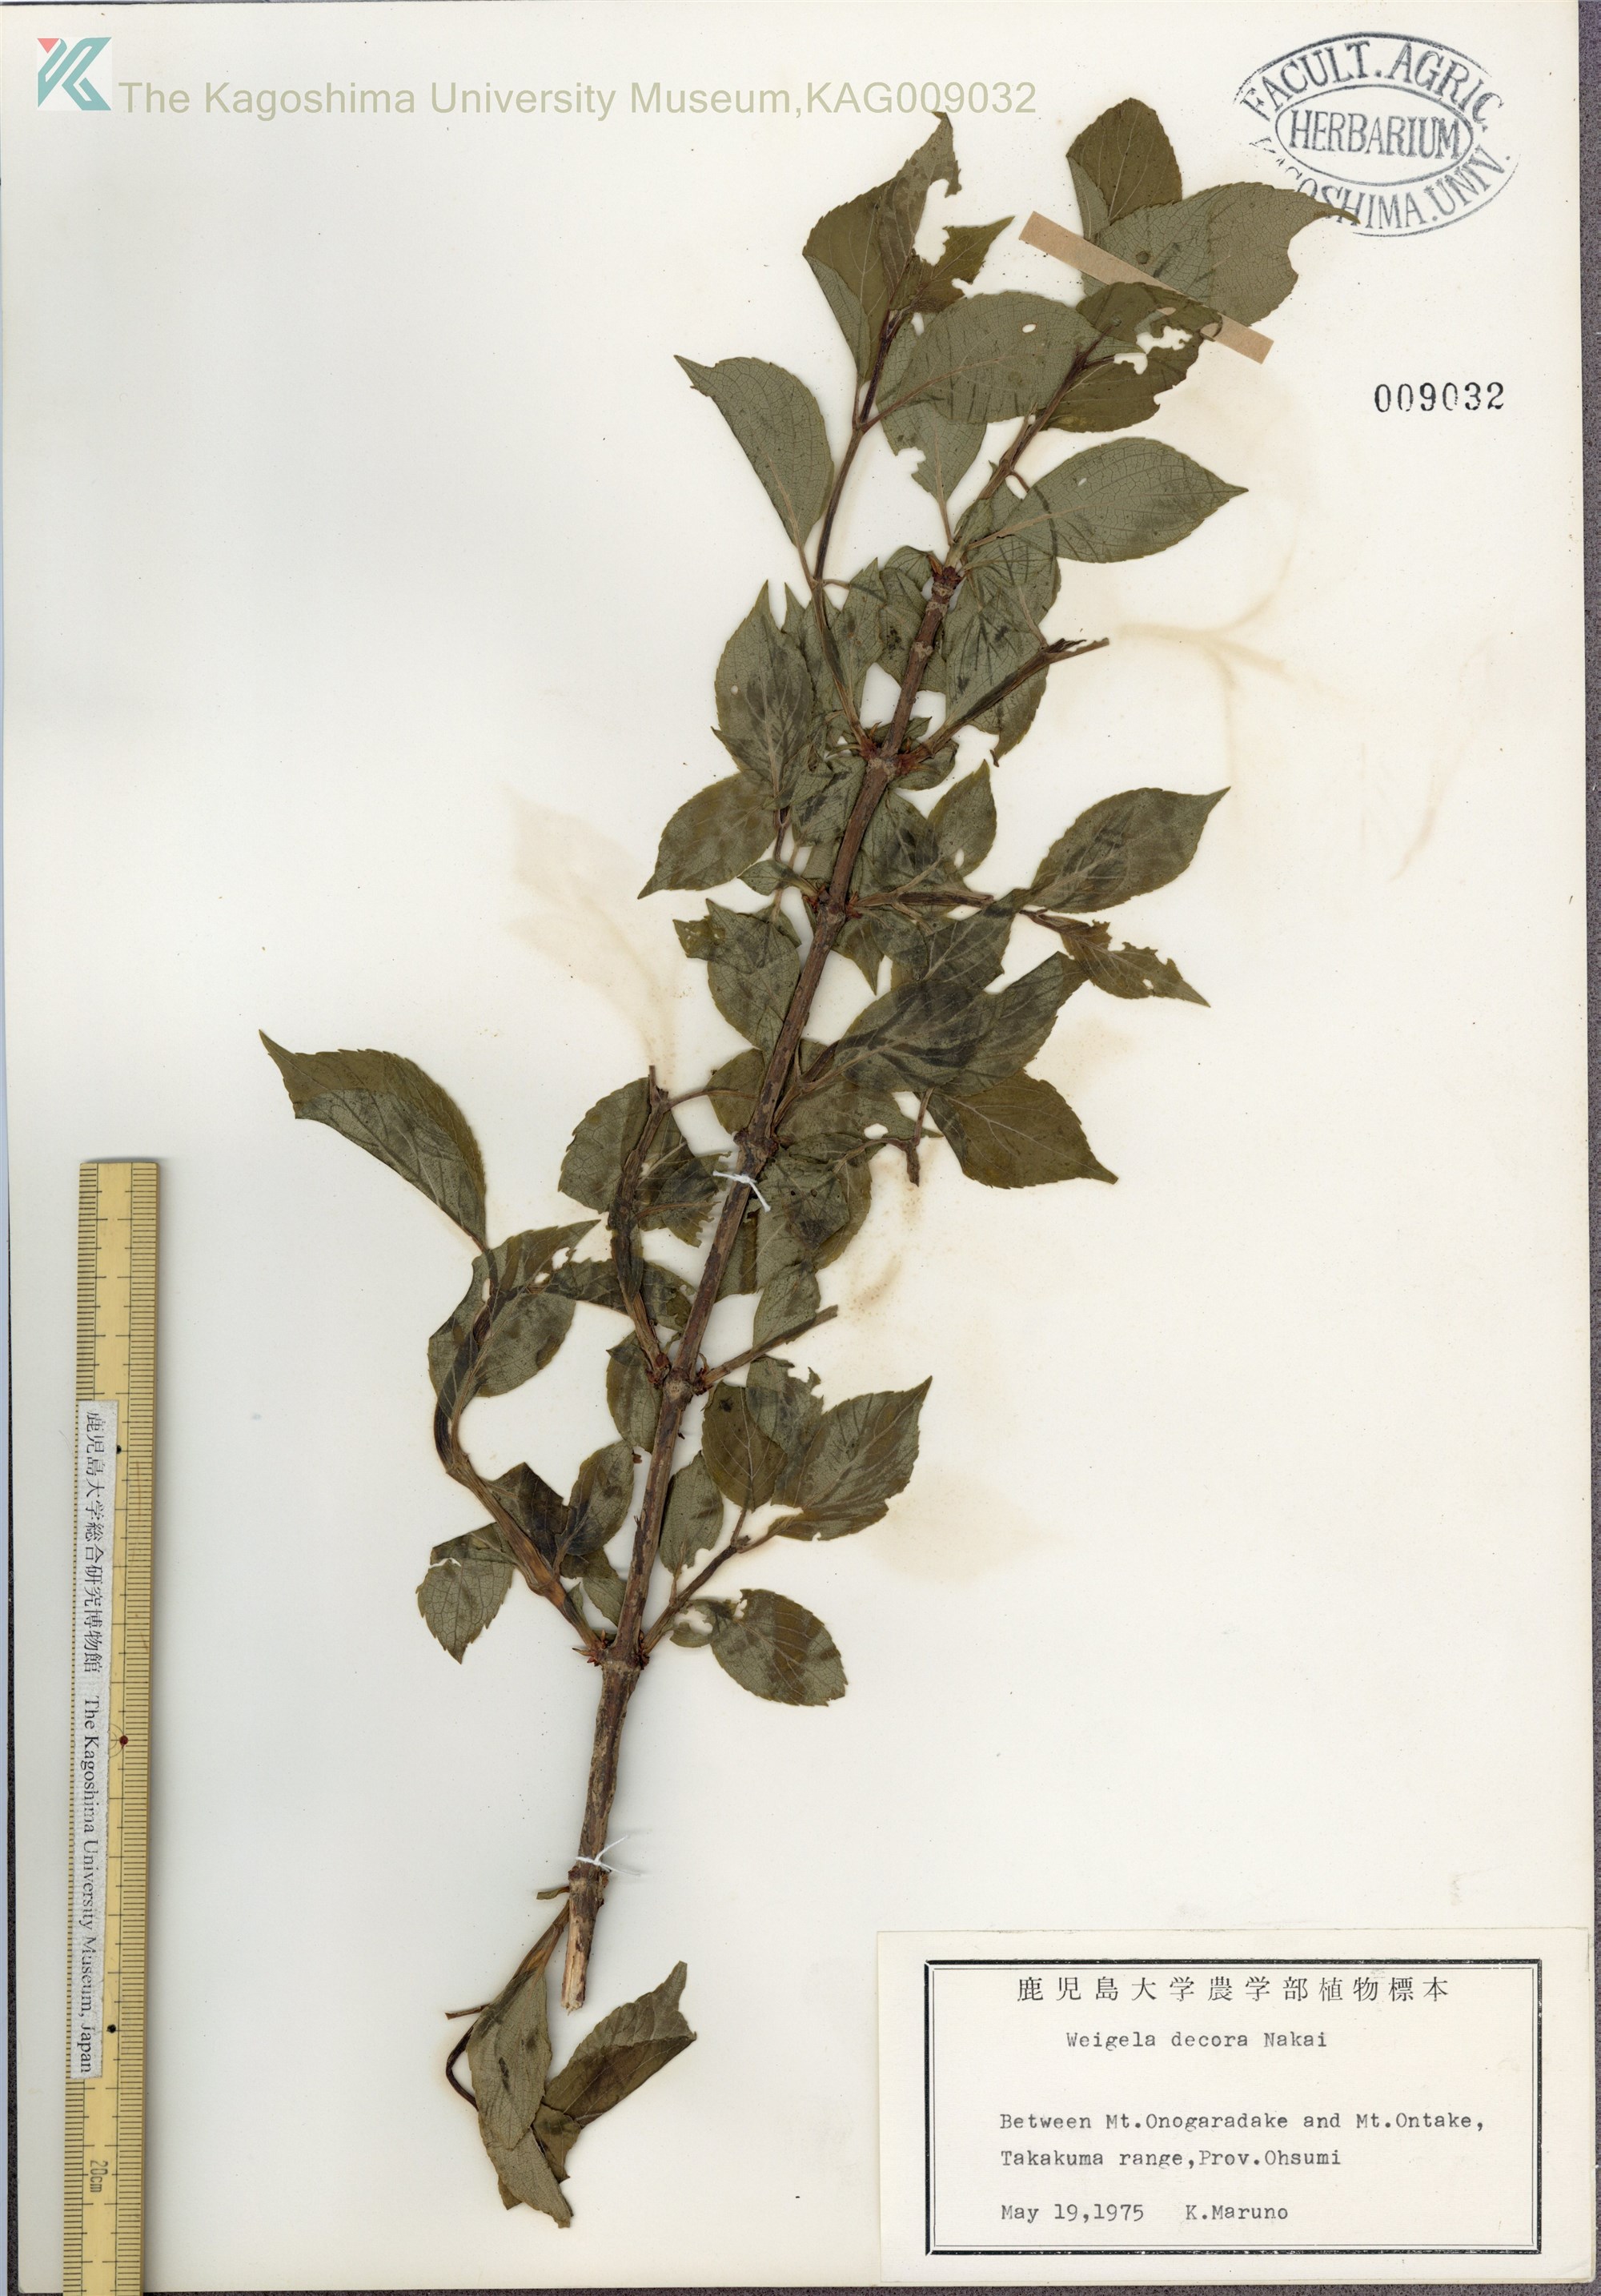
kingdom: Plantae
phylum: Tracheophyta
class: Magnoliopsida
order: Dipsacales
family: Caprifoliaceae
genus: Weigela
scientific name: Weigela decora
